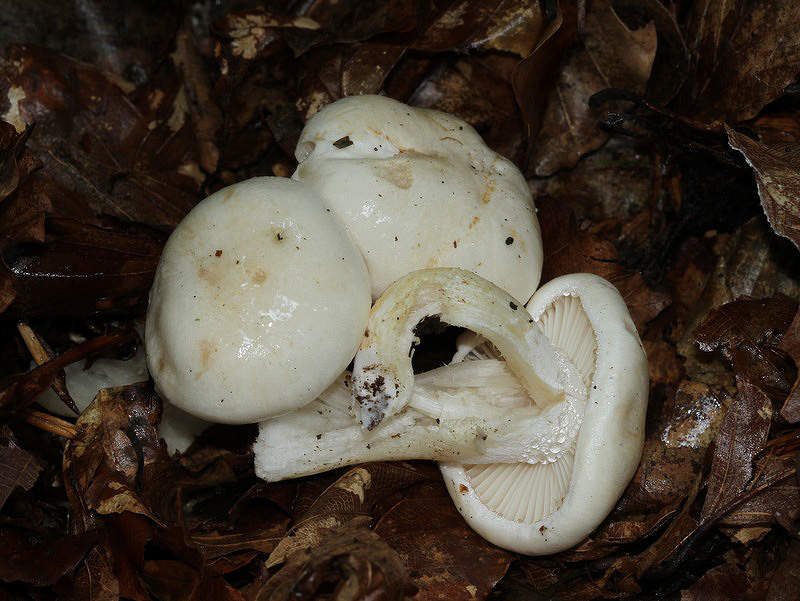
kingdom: Fungi
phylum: Basidiomycota
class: Agaricomycetes
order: Agaricales
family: Hygrophoraceae
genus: Hygrophorus
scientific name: Hygrophorus penarius
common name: spiselig sneglehat
